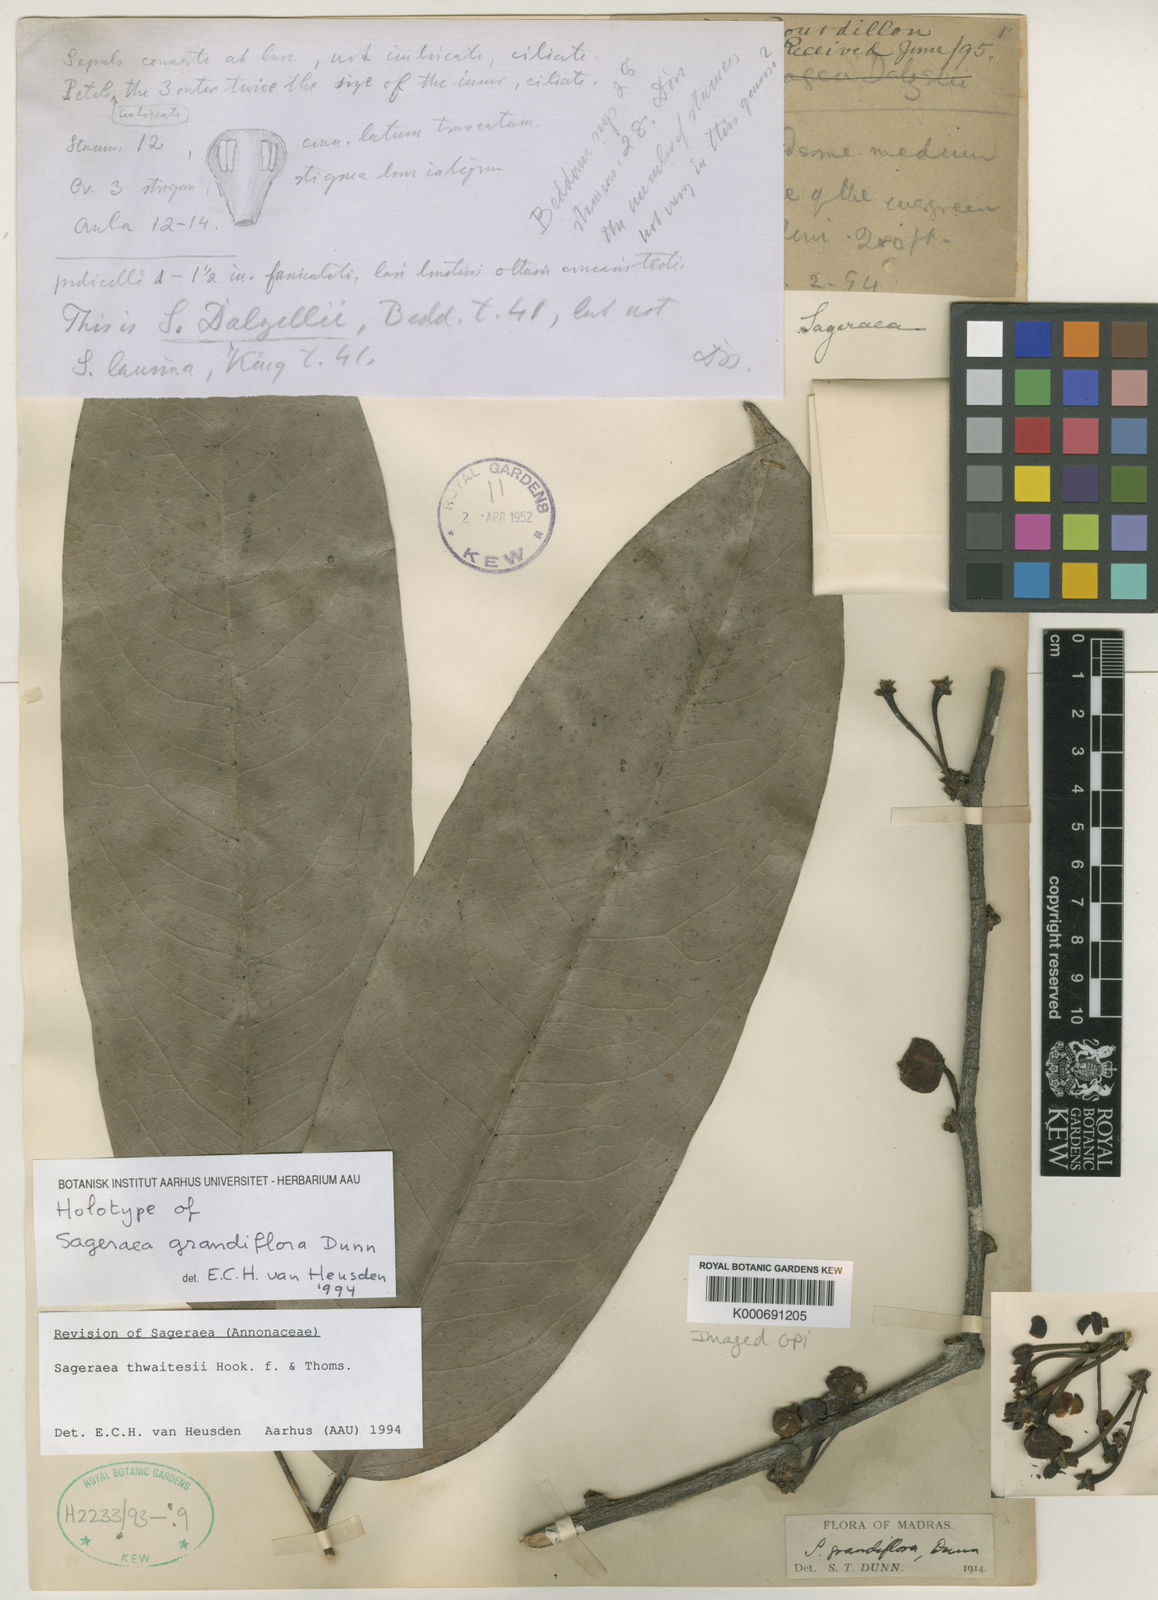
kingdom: Plantae
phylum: Tracheophyta
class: Magnoliopsida
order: Magnoliales
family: Annonaceae
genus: Sageraea
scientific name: Sageraea thwaitesii
